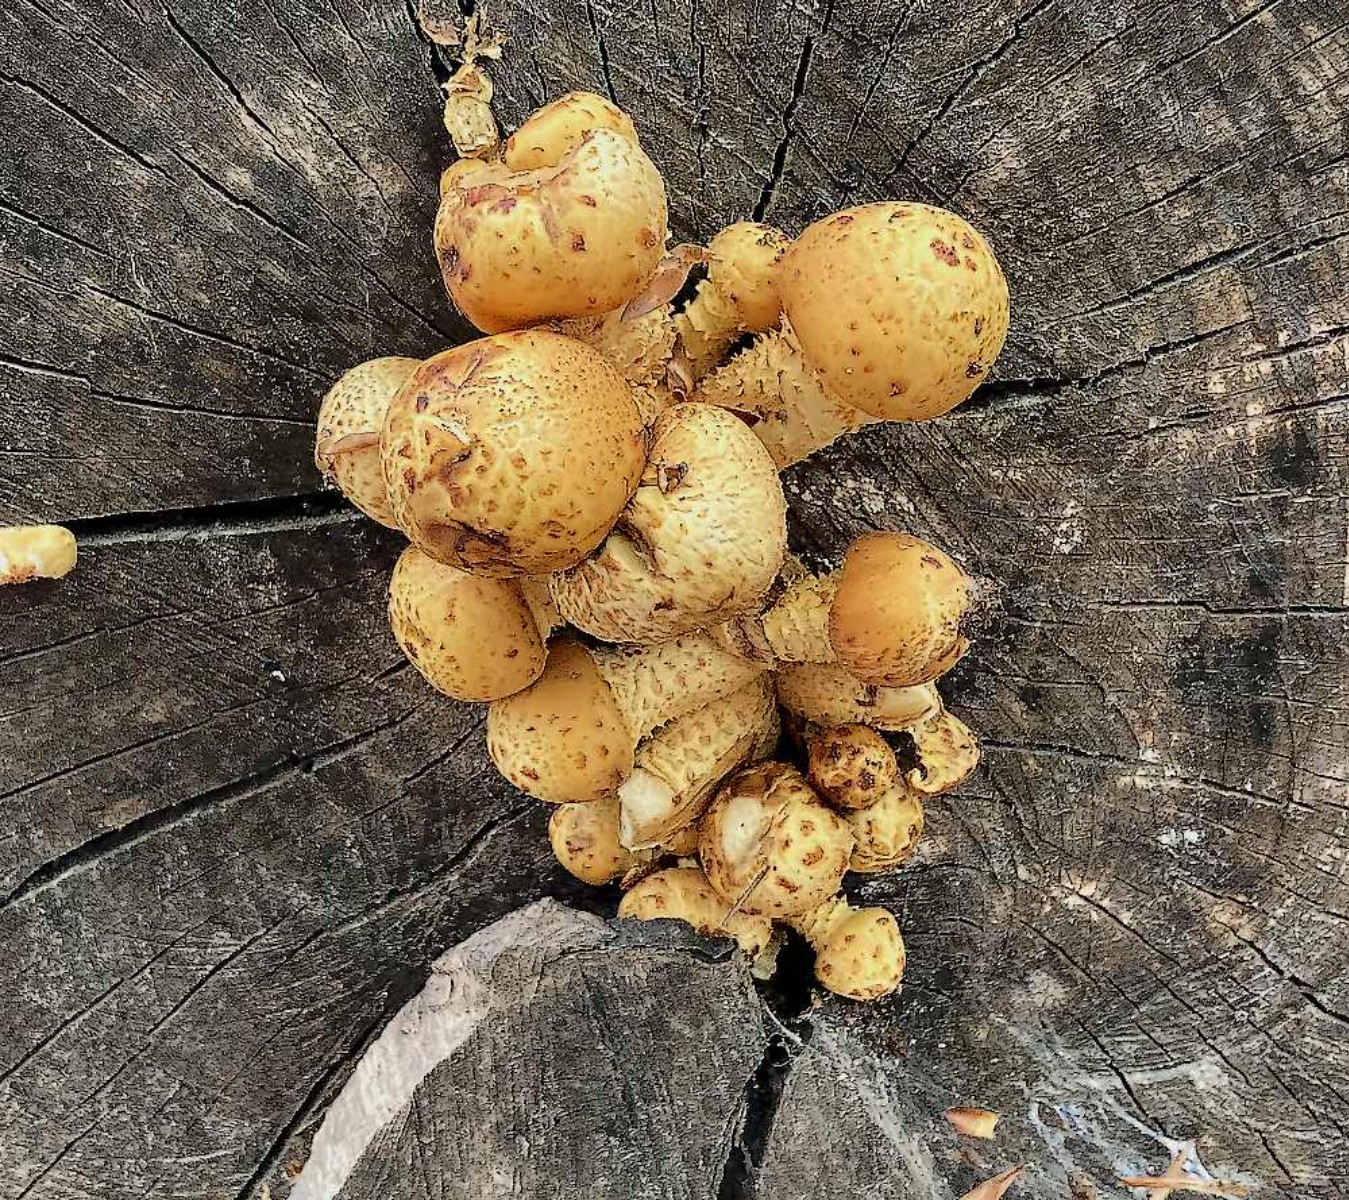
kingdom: Fungi
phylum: Basidiomycota
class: Agaricomycetes
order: Agaricales
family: Strophariaceae
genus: Pholiota
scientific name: Pholiota adiposa
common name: højtsiddende skælhat
